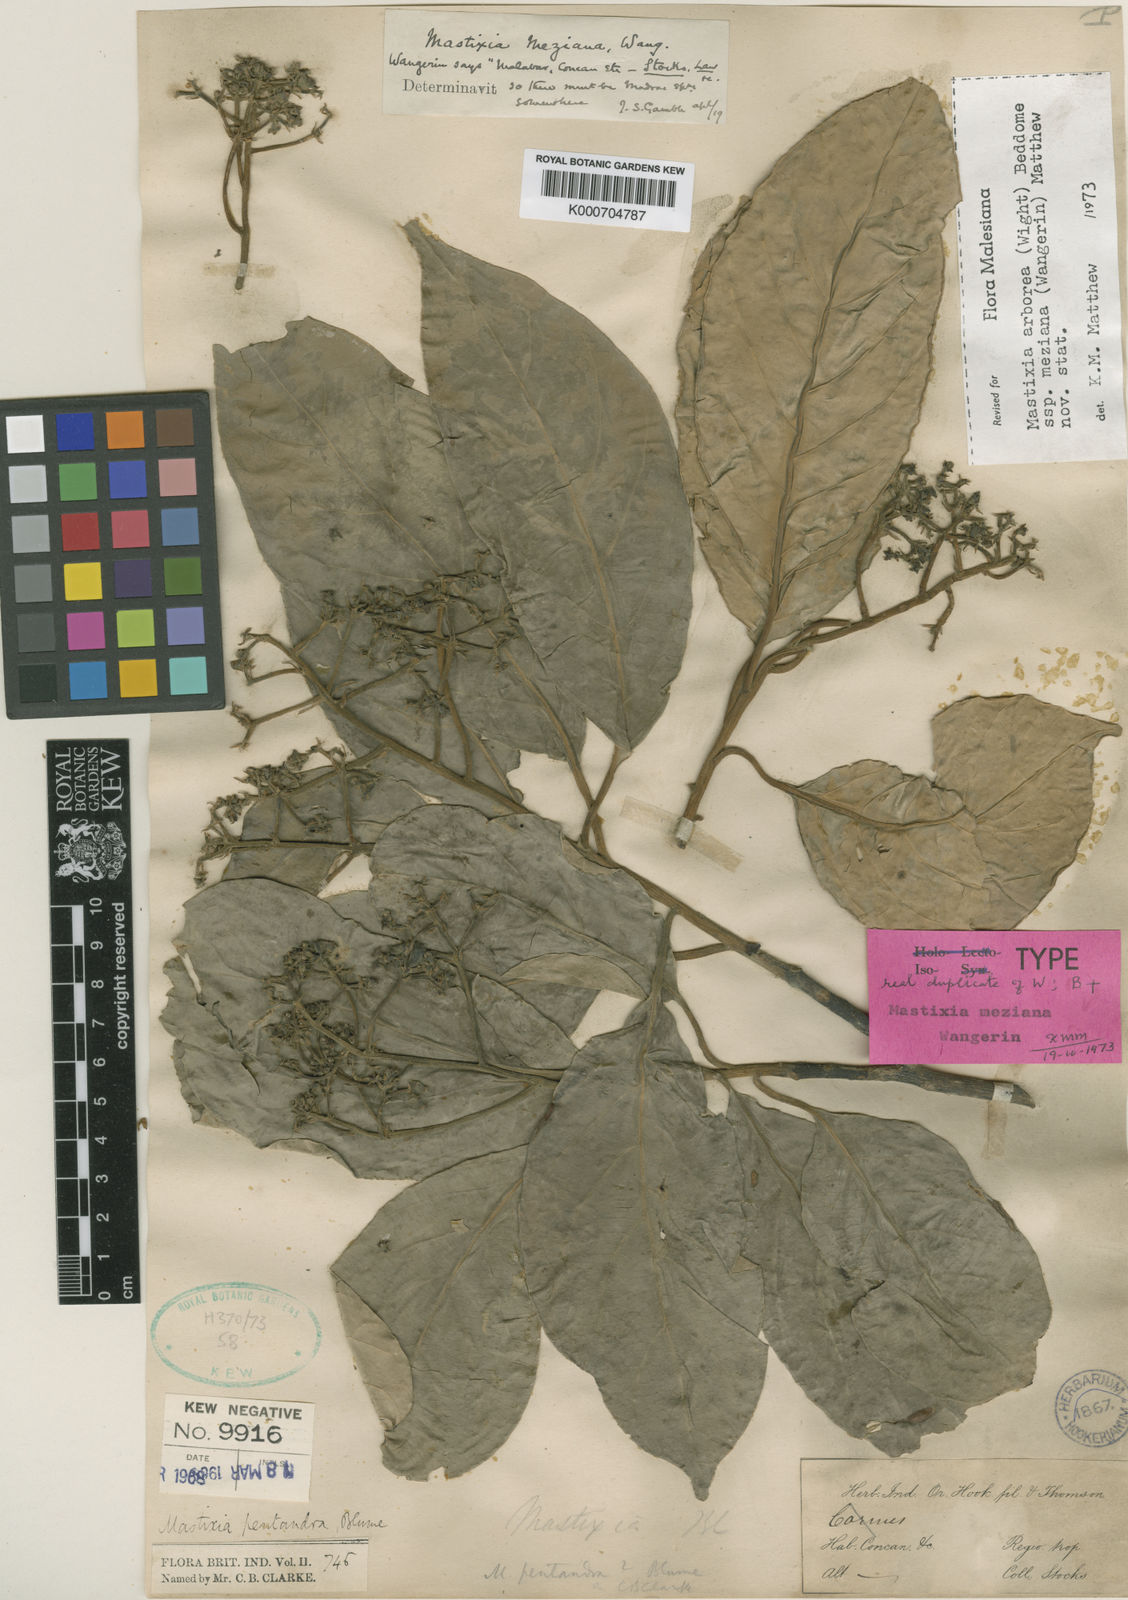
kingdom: Plantae
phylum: Tracheophyta
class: Magnoliopsida
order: Cornales
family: Nyssaceae
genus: Mastixia
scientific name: Mastixia arborea
